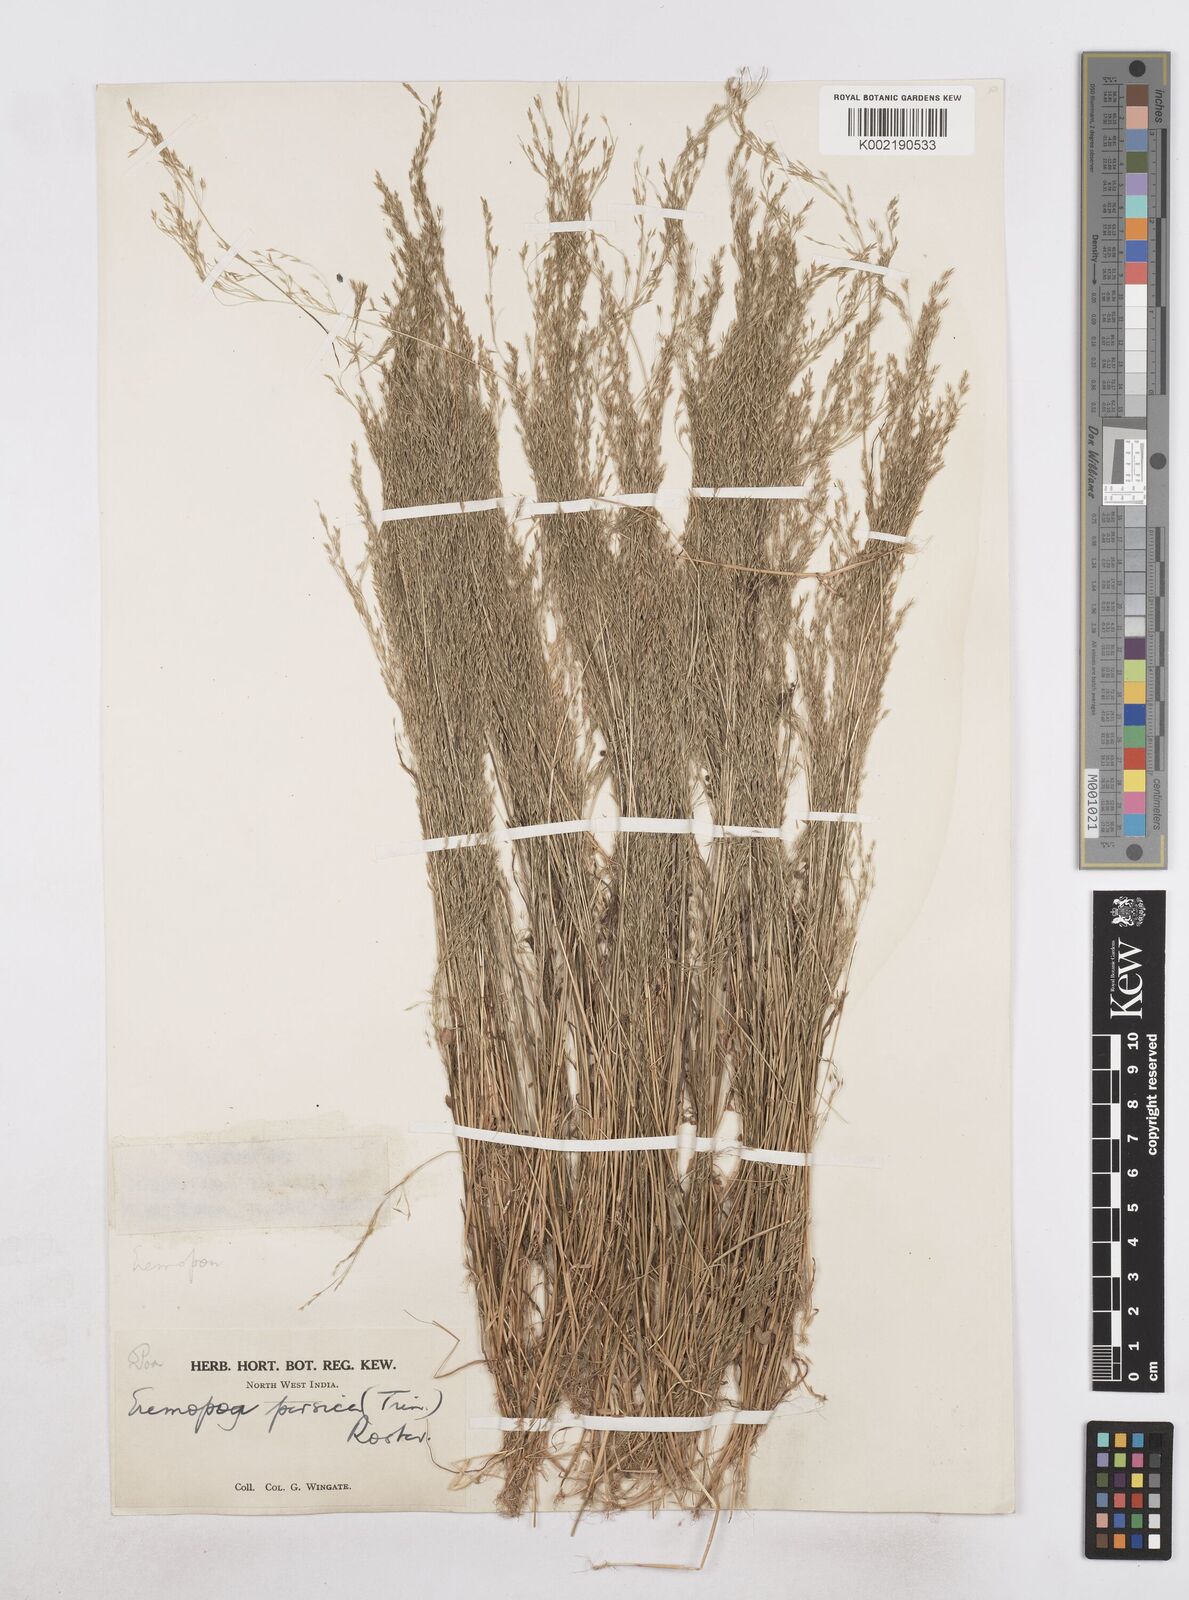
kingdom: Plantae
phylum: Tracheophyta
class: Liliopsida
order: Poales
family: Poaceae
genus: Poa
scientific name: Poa diaphora
